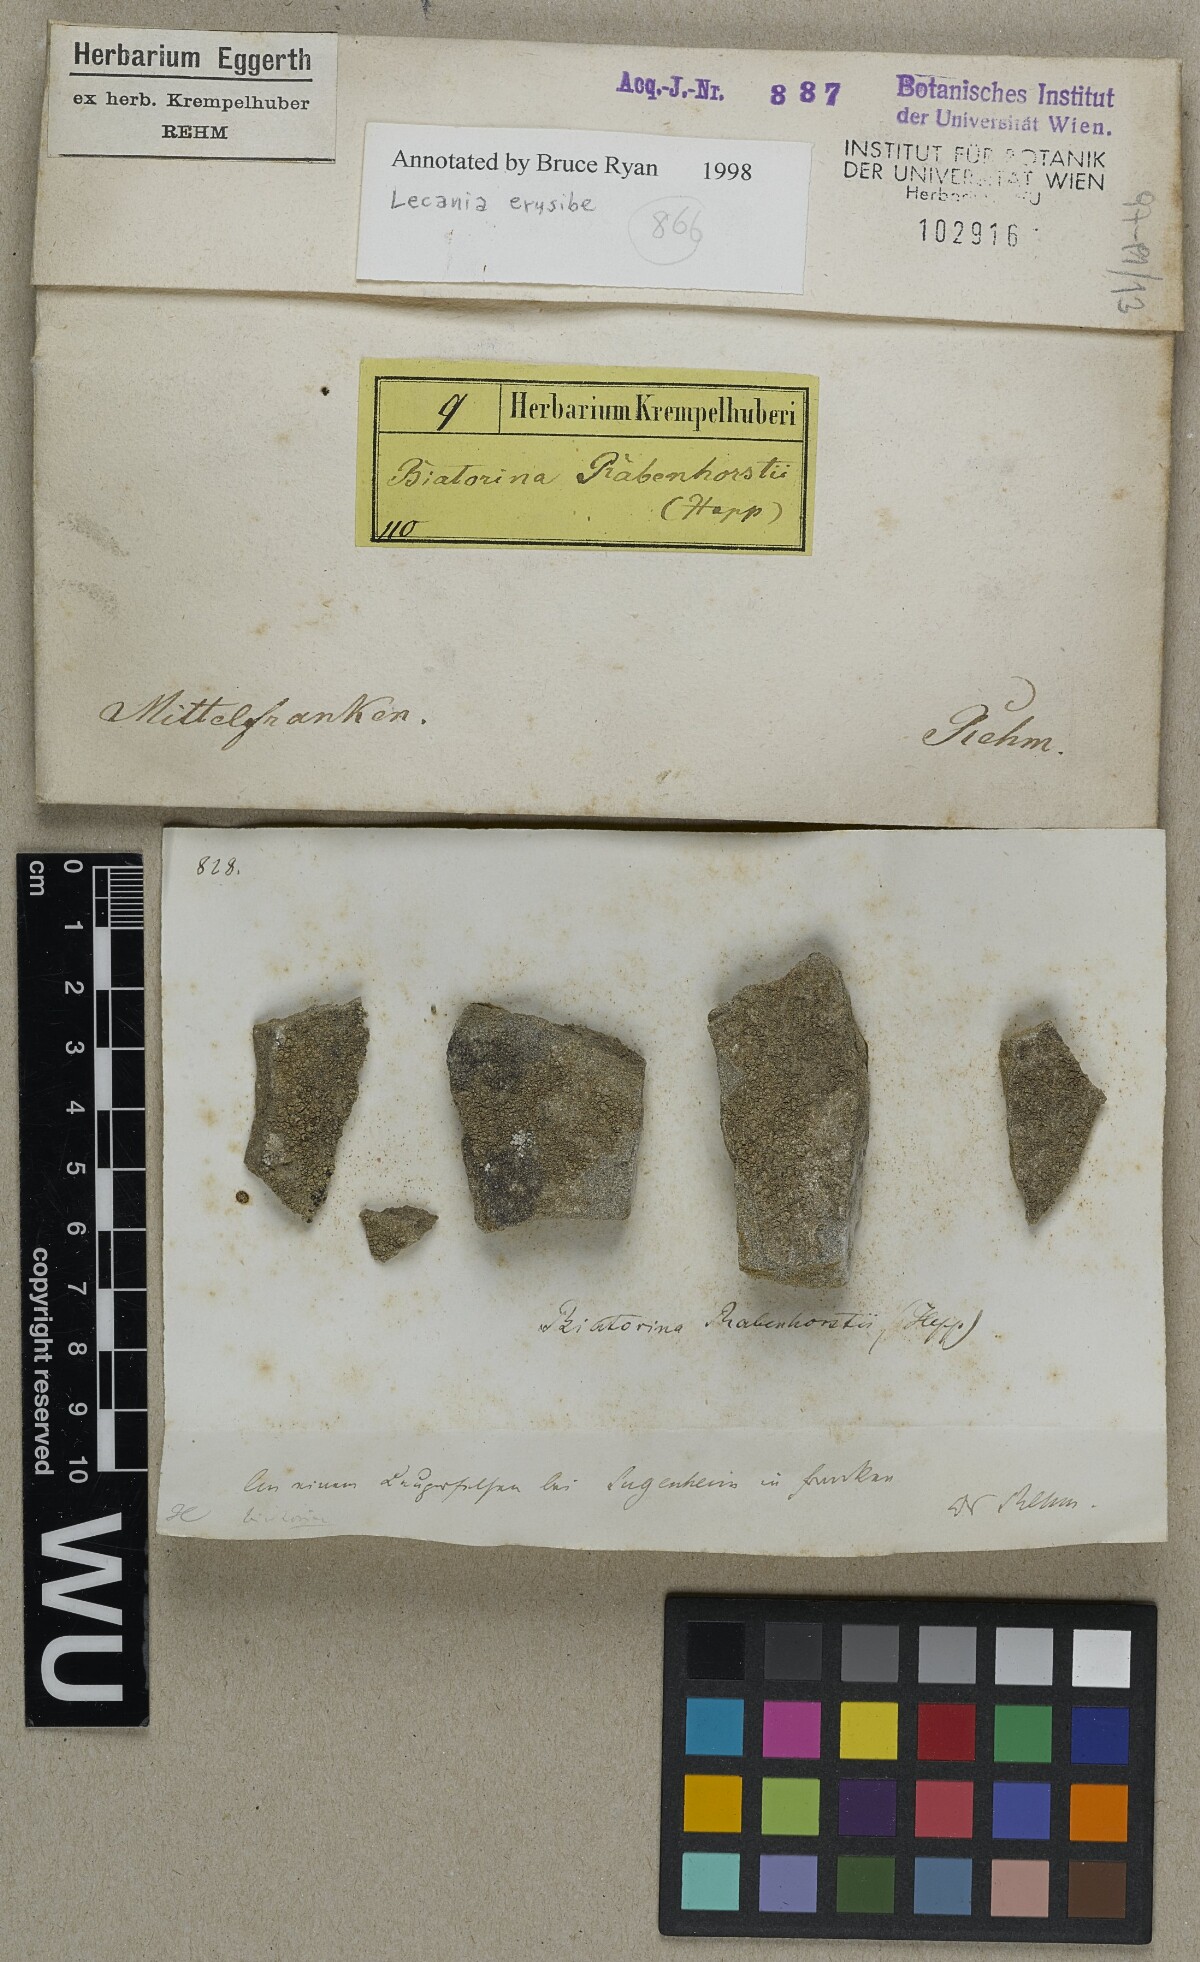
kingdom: Fungi
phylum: Ascomycota
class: Lecanoromycetes
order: Lecanorales
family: Ramalinaceae
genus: Lecania
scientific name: Lecania erysibe
